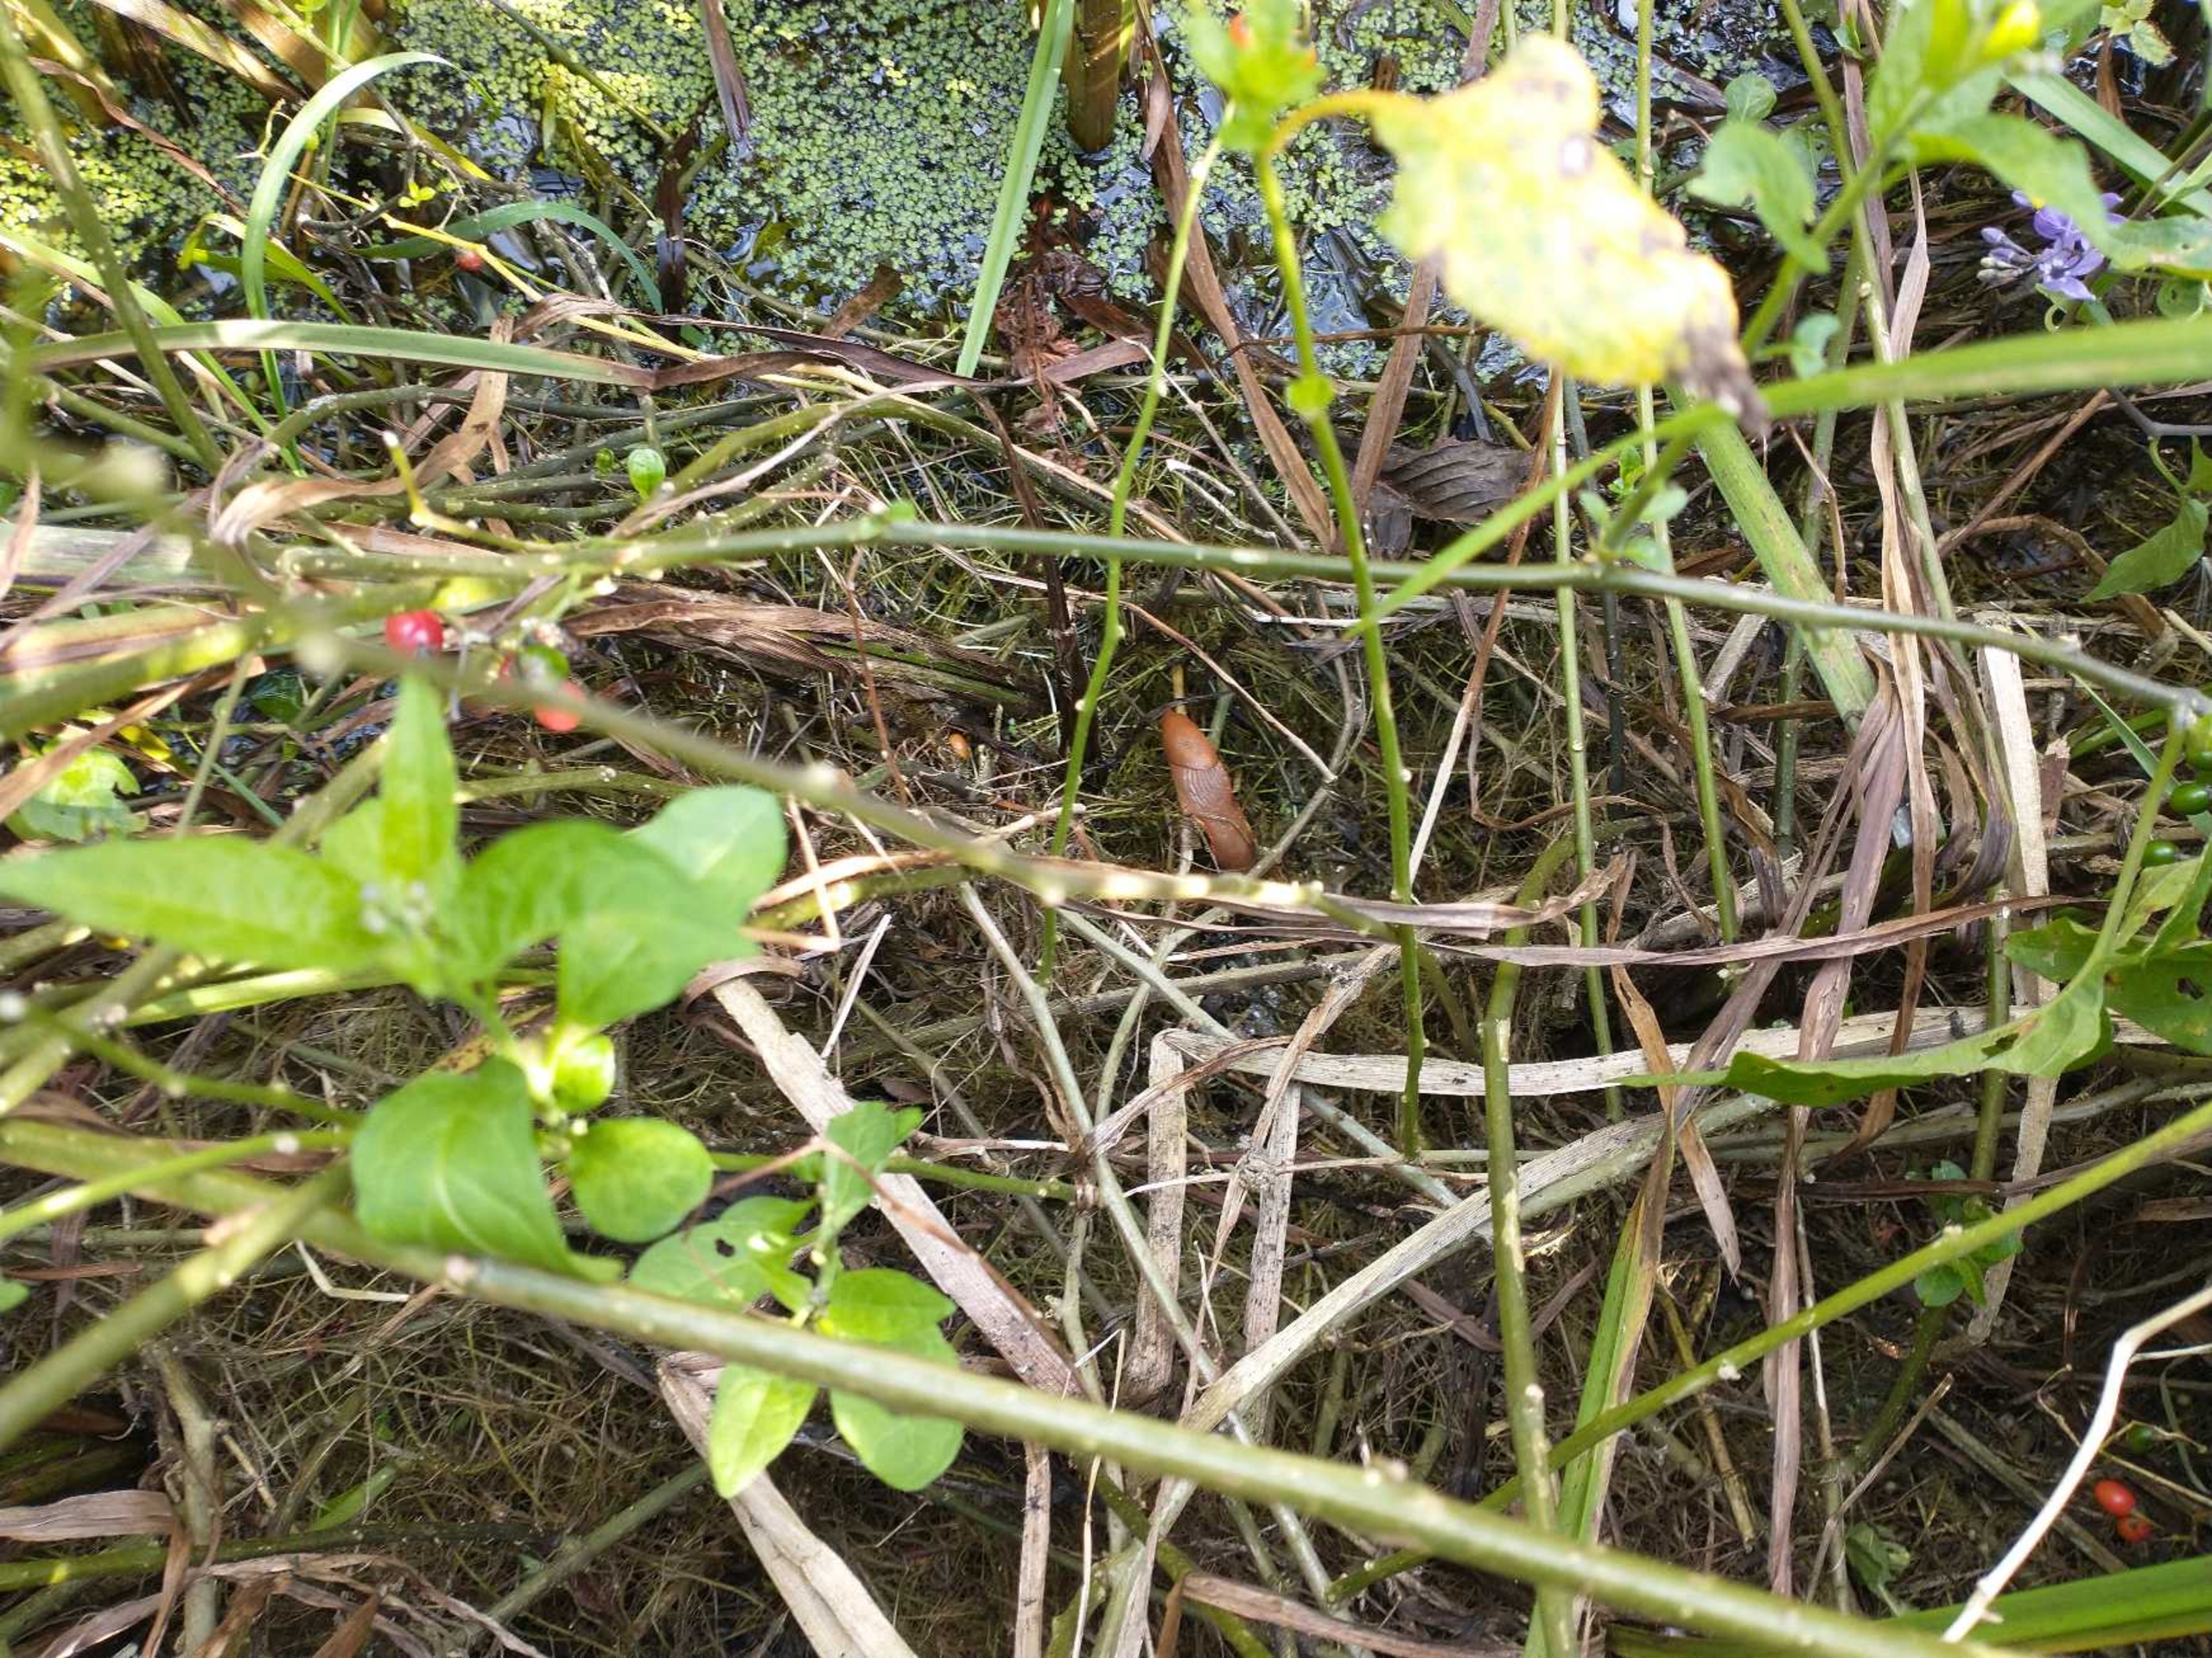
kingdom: Animalia
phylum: Mollusca
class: Gastropoda
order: Stylommatophora
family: Arionidae
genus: Arion
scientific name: Arion vulgaris
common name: Iberisk skovsnegl
